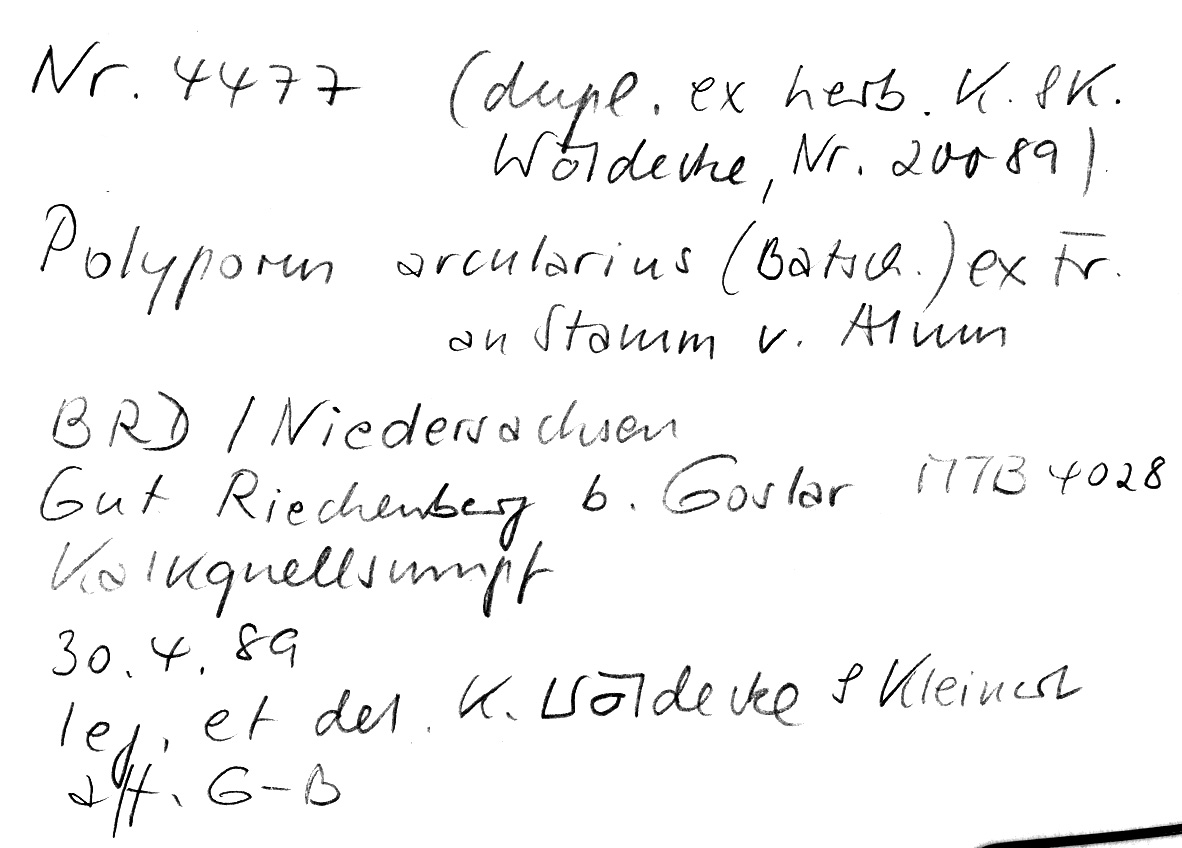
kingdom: Fungi
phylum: Basidiomycota
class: Agaricomycetes
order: Polyporales
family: Polyporaceae
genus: Lentinus
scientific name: Lentinus arcularius
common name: Spring polypore
